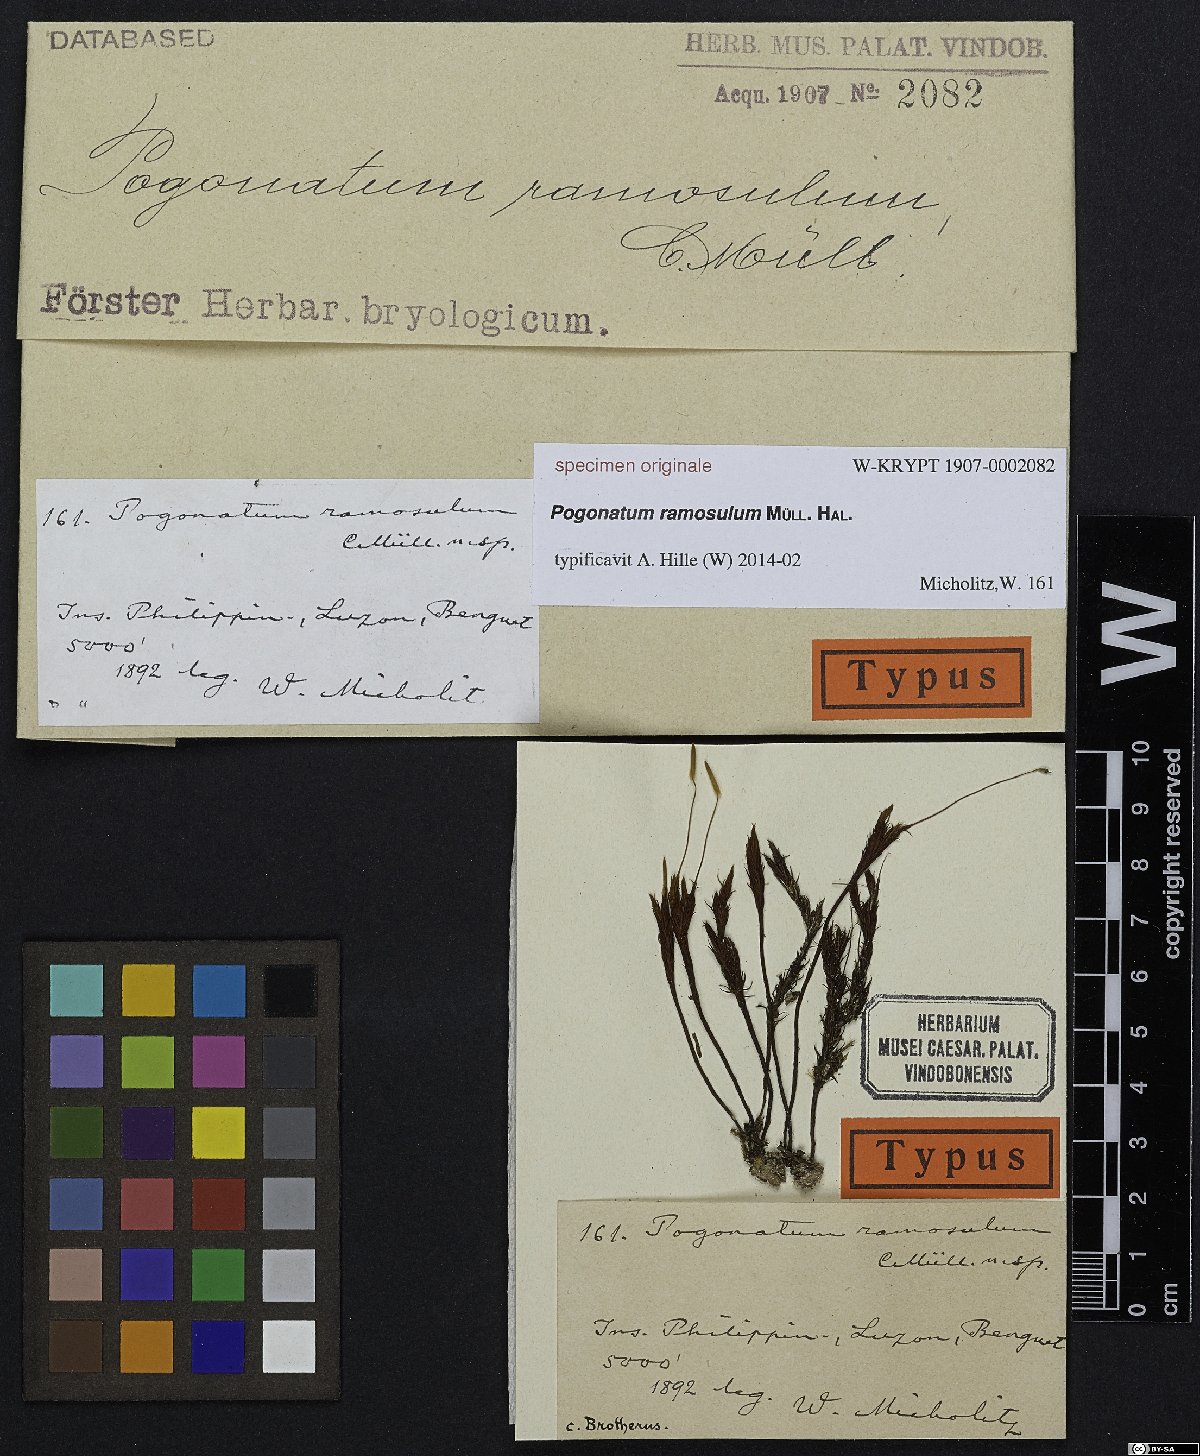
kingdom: Plantae
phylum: Bryophyta
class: Polytrichopsida
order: Polytrichales
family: Polytrichaceae
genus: Pogonatum
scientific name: Pogonatum
